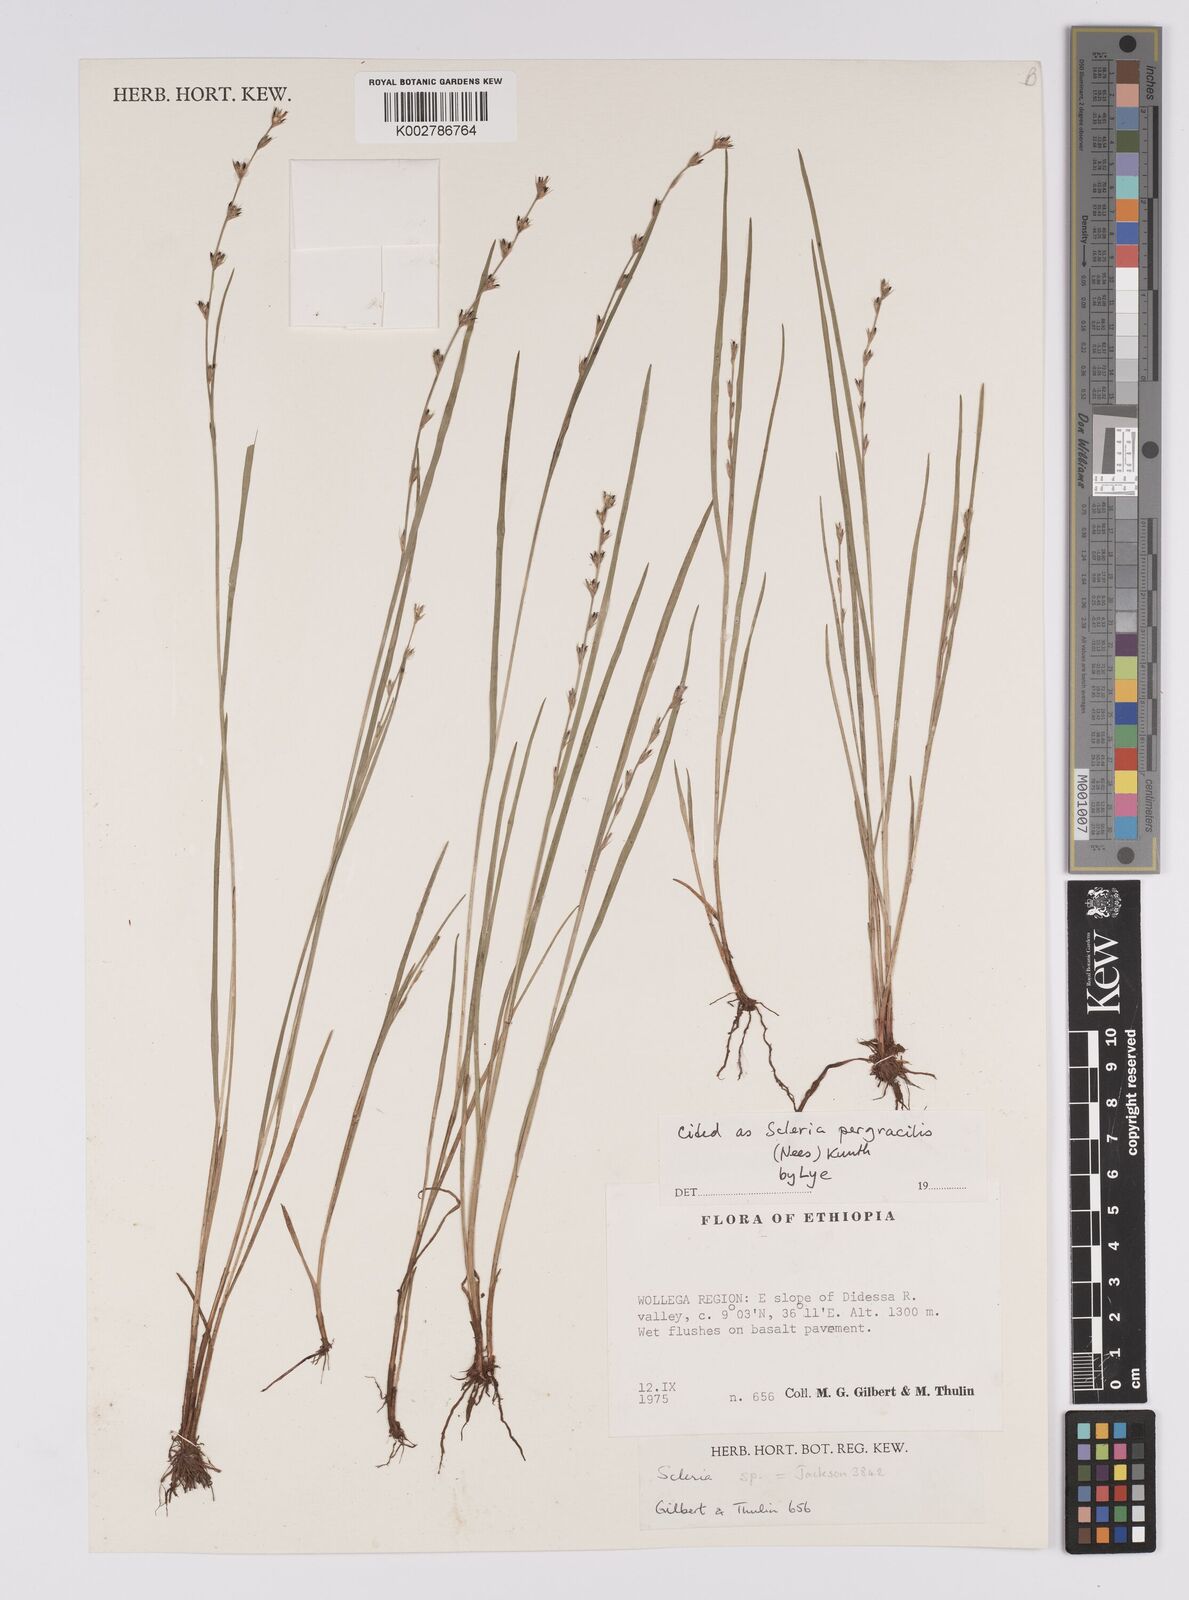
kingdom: Plantae
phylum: Tracheophyta
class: Liliopsida
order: Poales
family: Cyperaceae
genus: Scleria
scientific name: Scleria pergracilis
